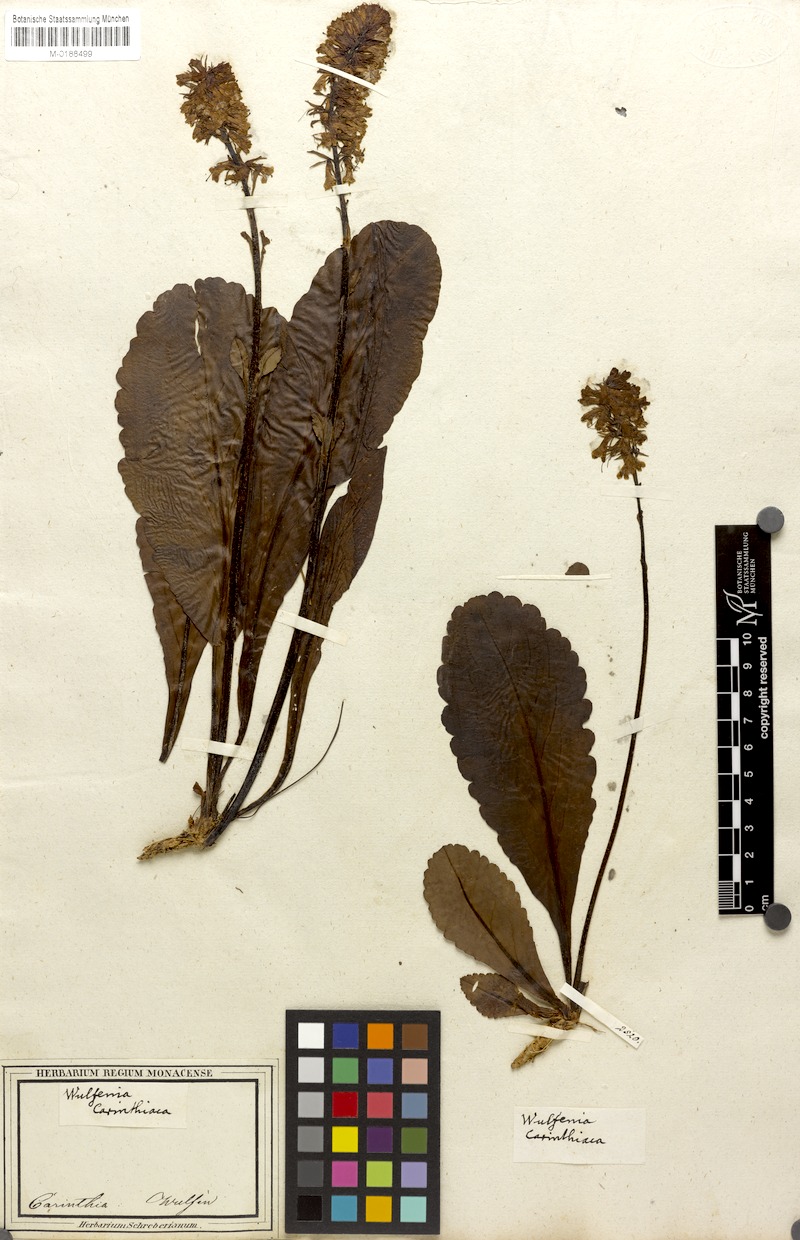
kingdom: Plantae
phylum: Tracheophyta
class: Magnoliopsida
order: Lamiales
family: Plantaginaceae
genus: Wulfenia
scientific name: Wulfenia carinthiaca
